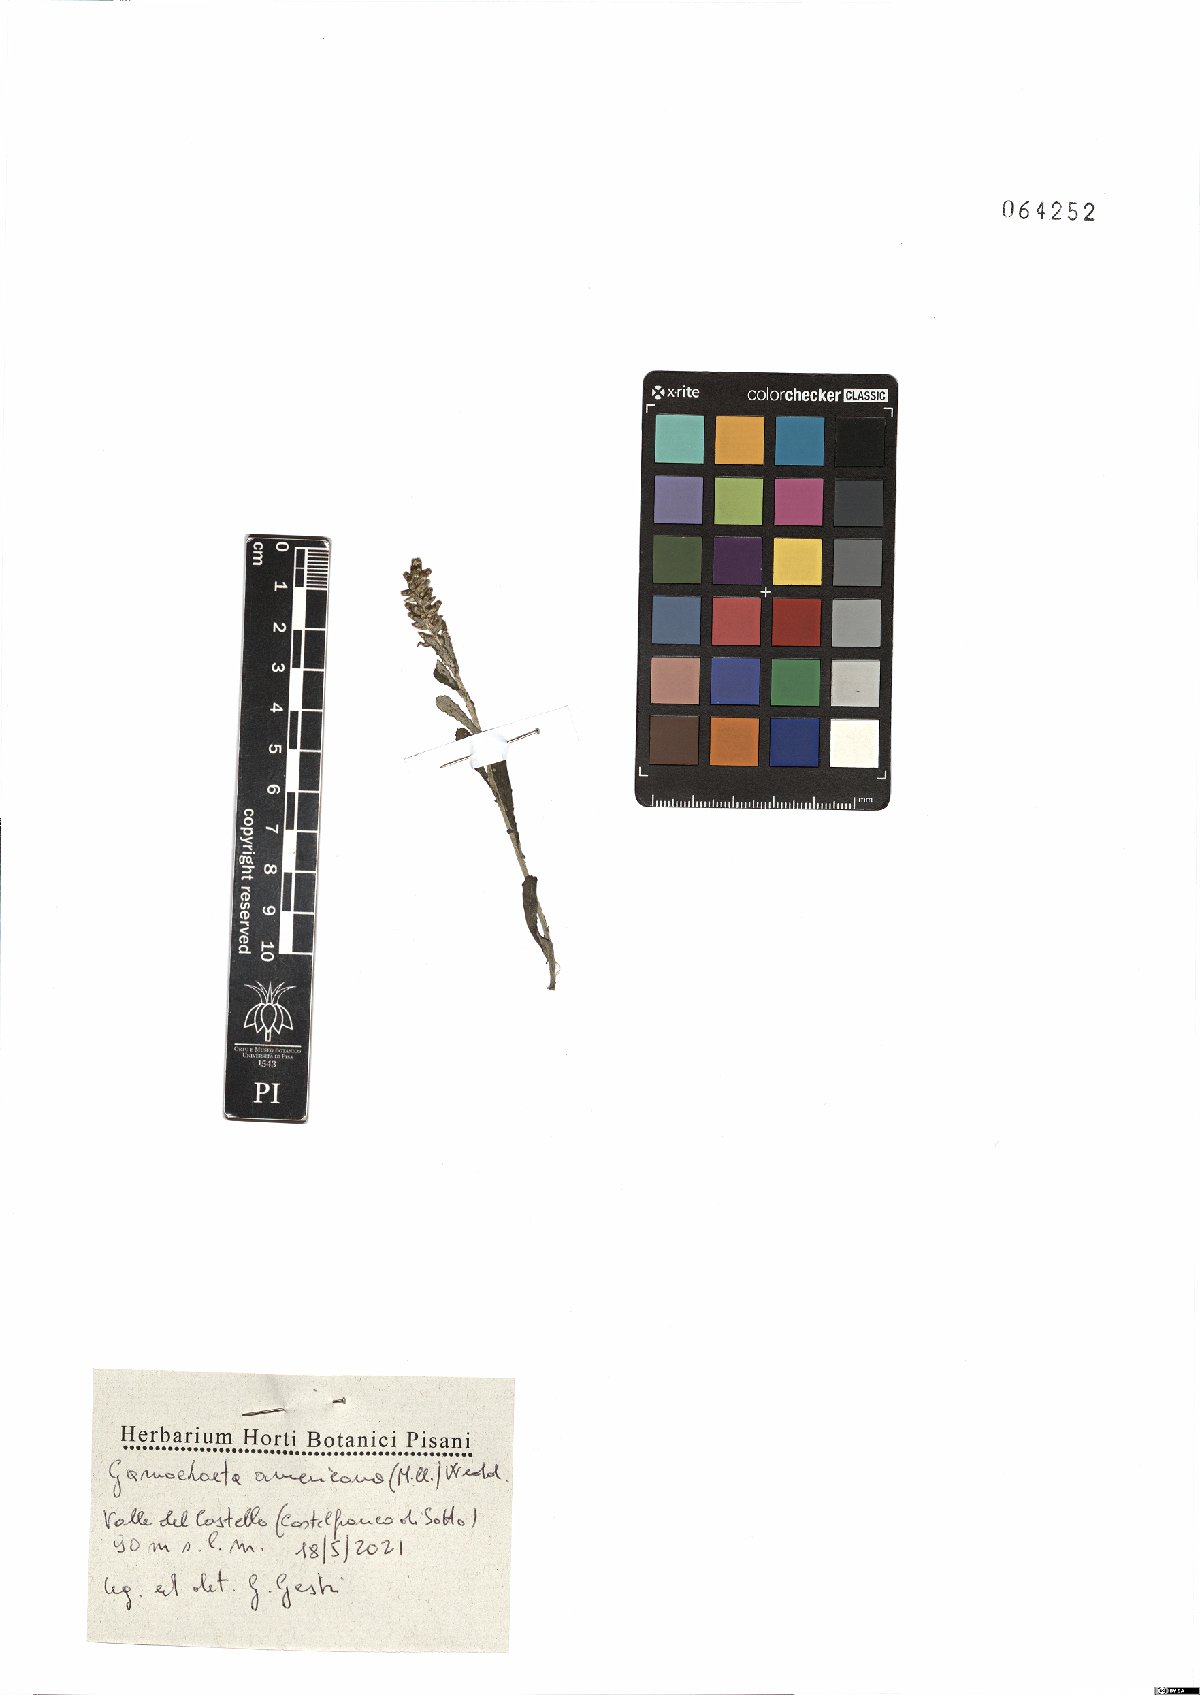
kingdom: Plantae
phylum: Tracheophyta
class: Magnoliopsida
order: Asterales
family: Asteraceae
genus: Gamochaeta
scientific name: Gamochaeta americana
